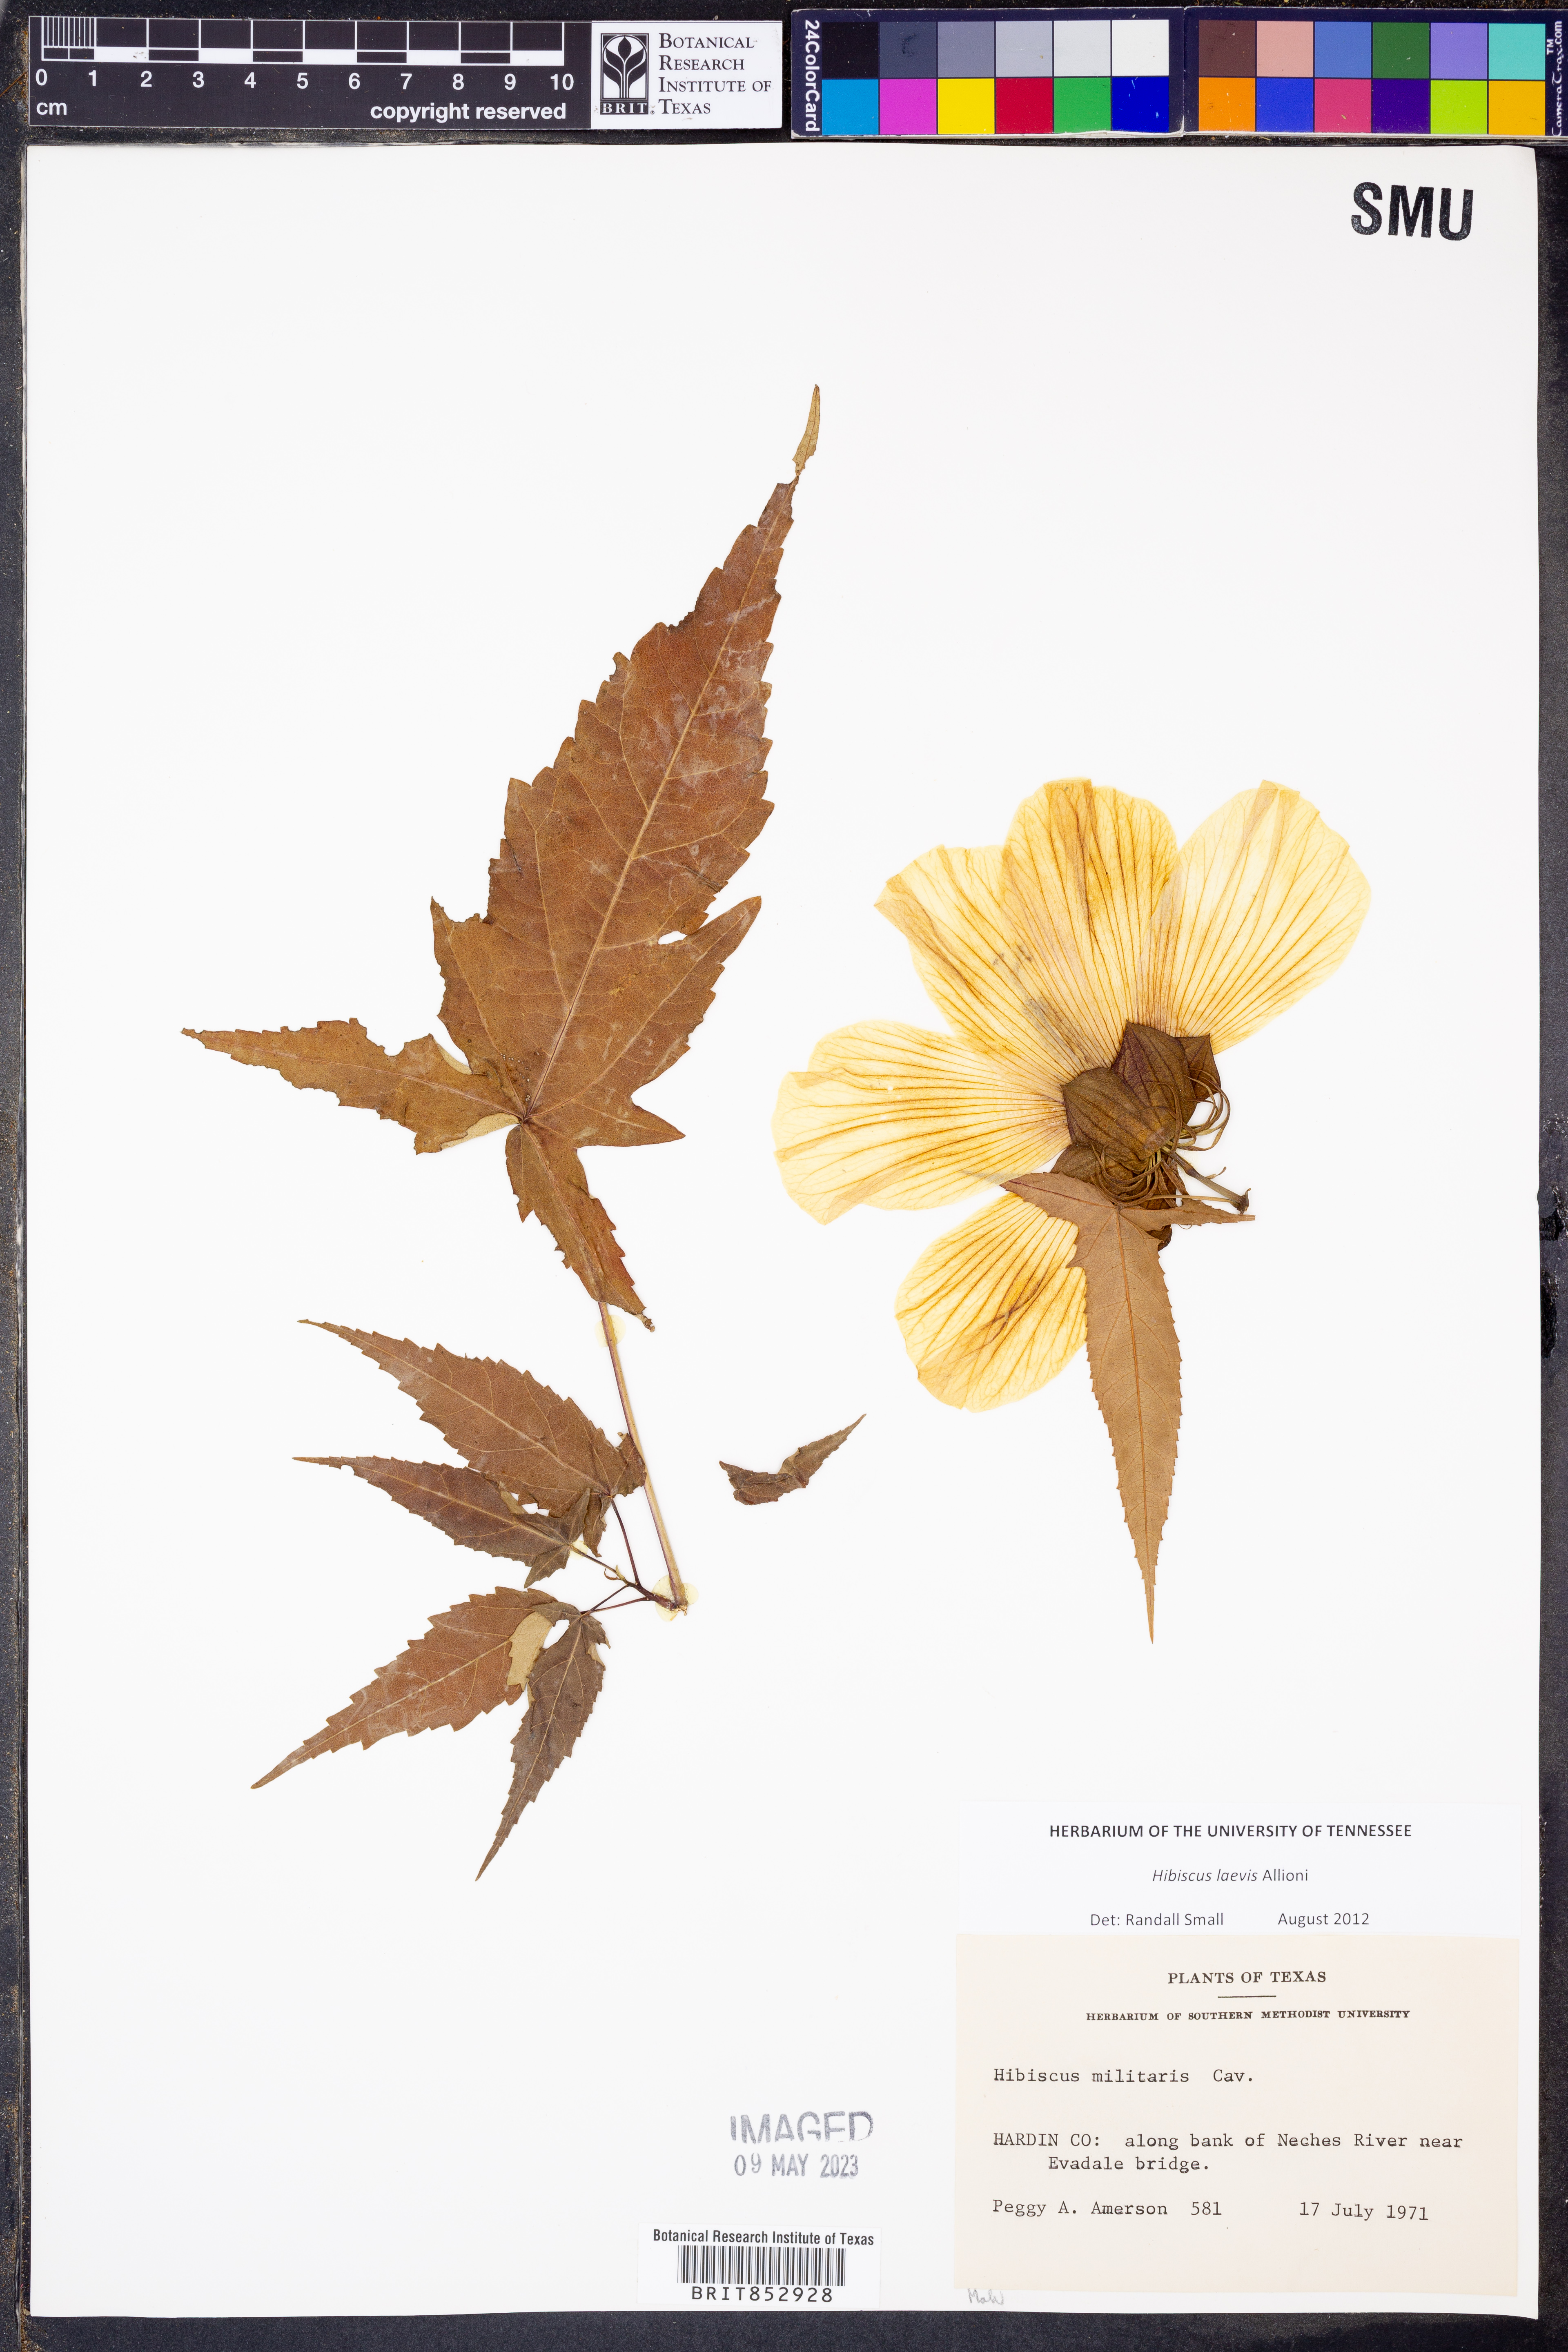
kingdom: Plantae
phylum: Tracheophyta
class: Magnoliopsida
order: Malvales
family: Malvaceae
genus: Hibiscus
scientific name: Hibiscus laevis
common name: Scarlet rose-mallow
